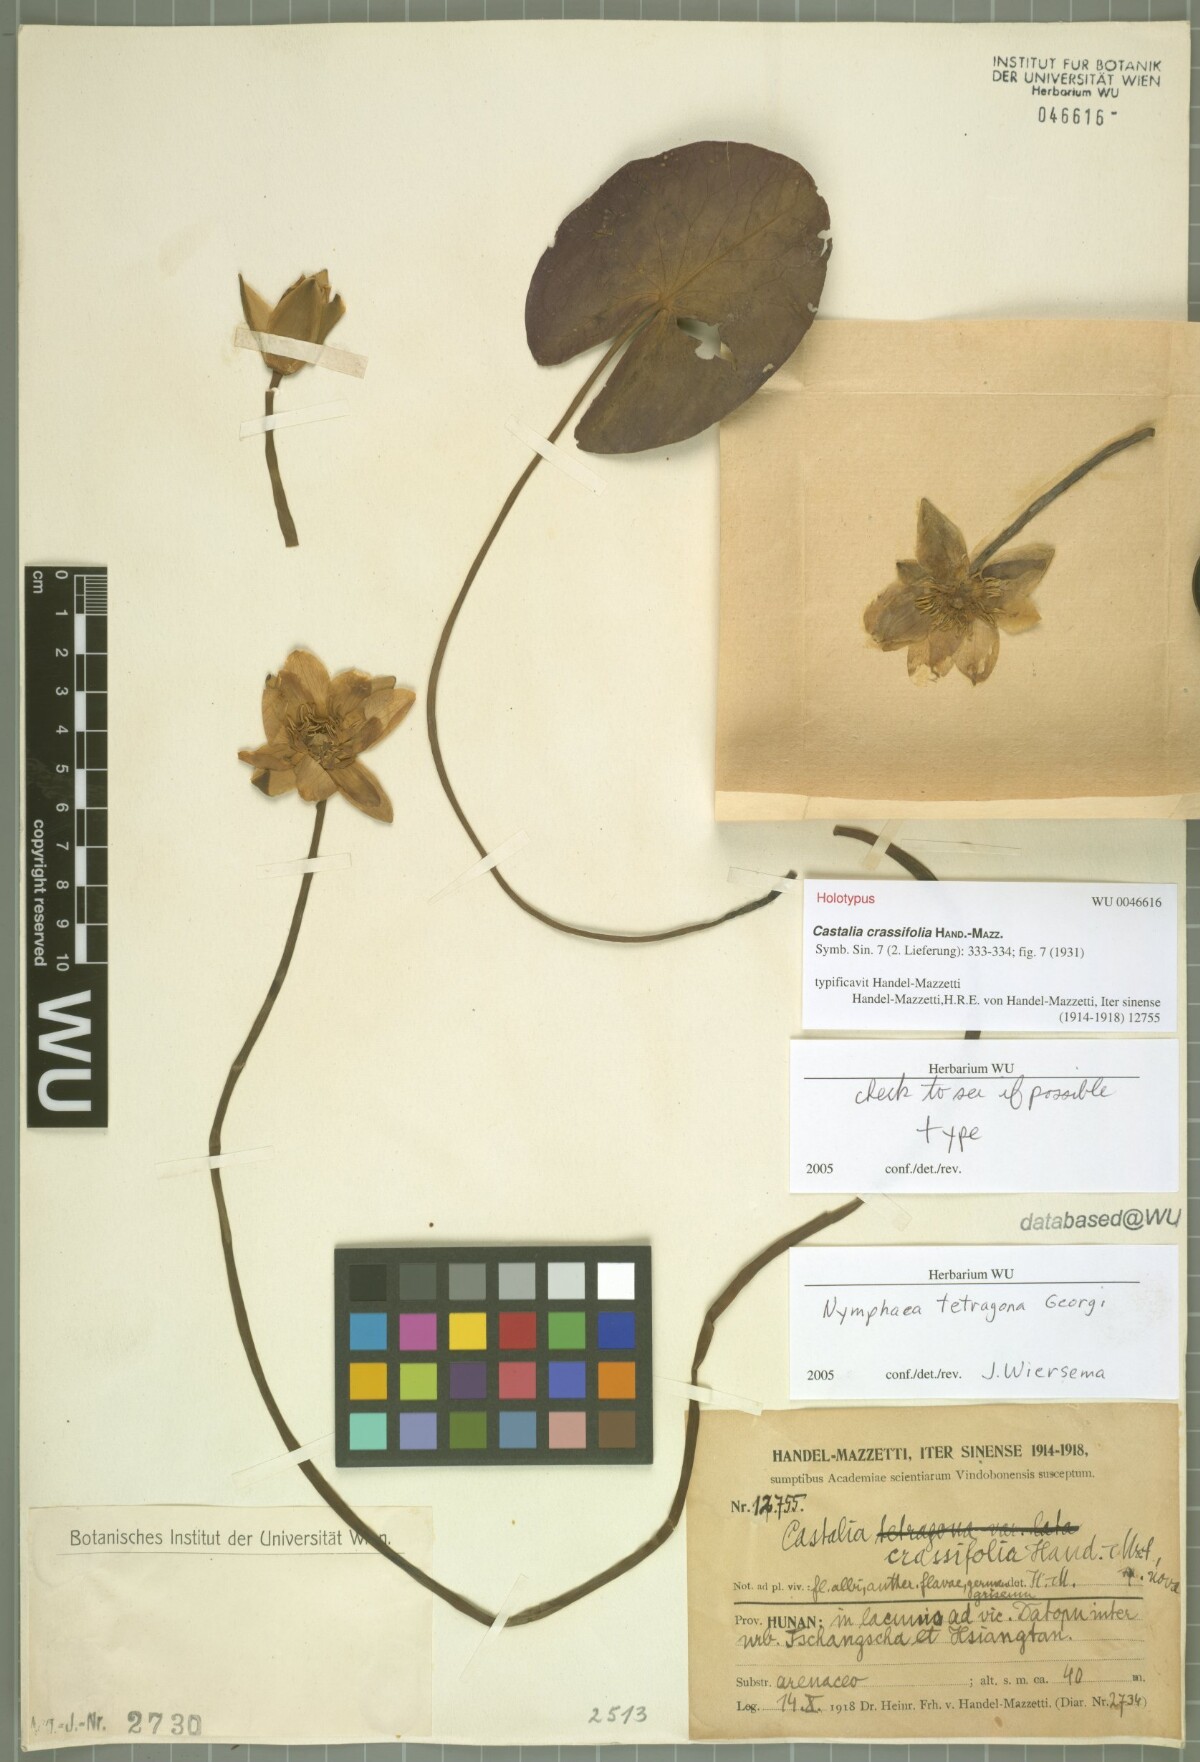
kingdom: Plantae
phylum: Tracheophyta
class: Magnoliopsida
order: Nymphaeales
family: Nymphaeaceae
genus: Nymphaea
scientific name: Nymphaea tetragona
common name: Pygmy water-lily
